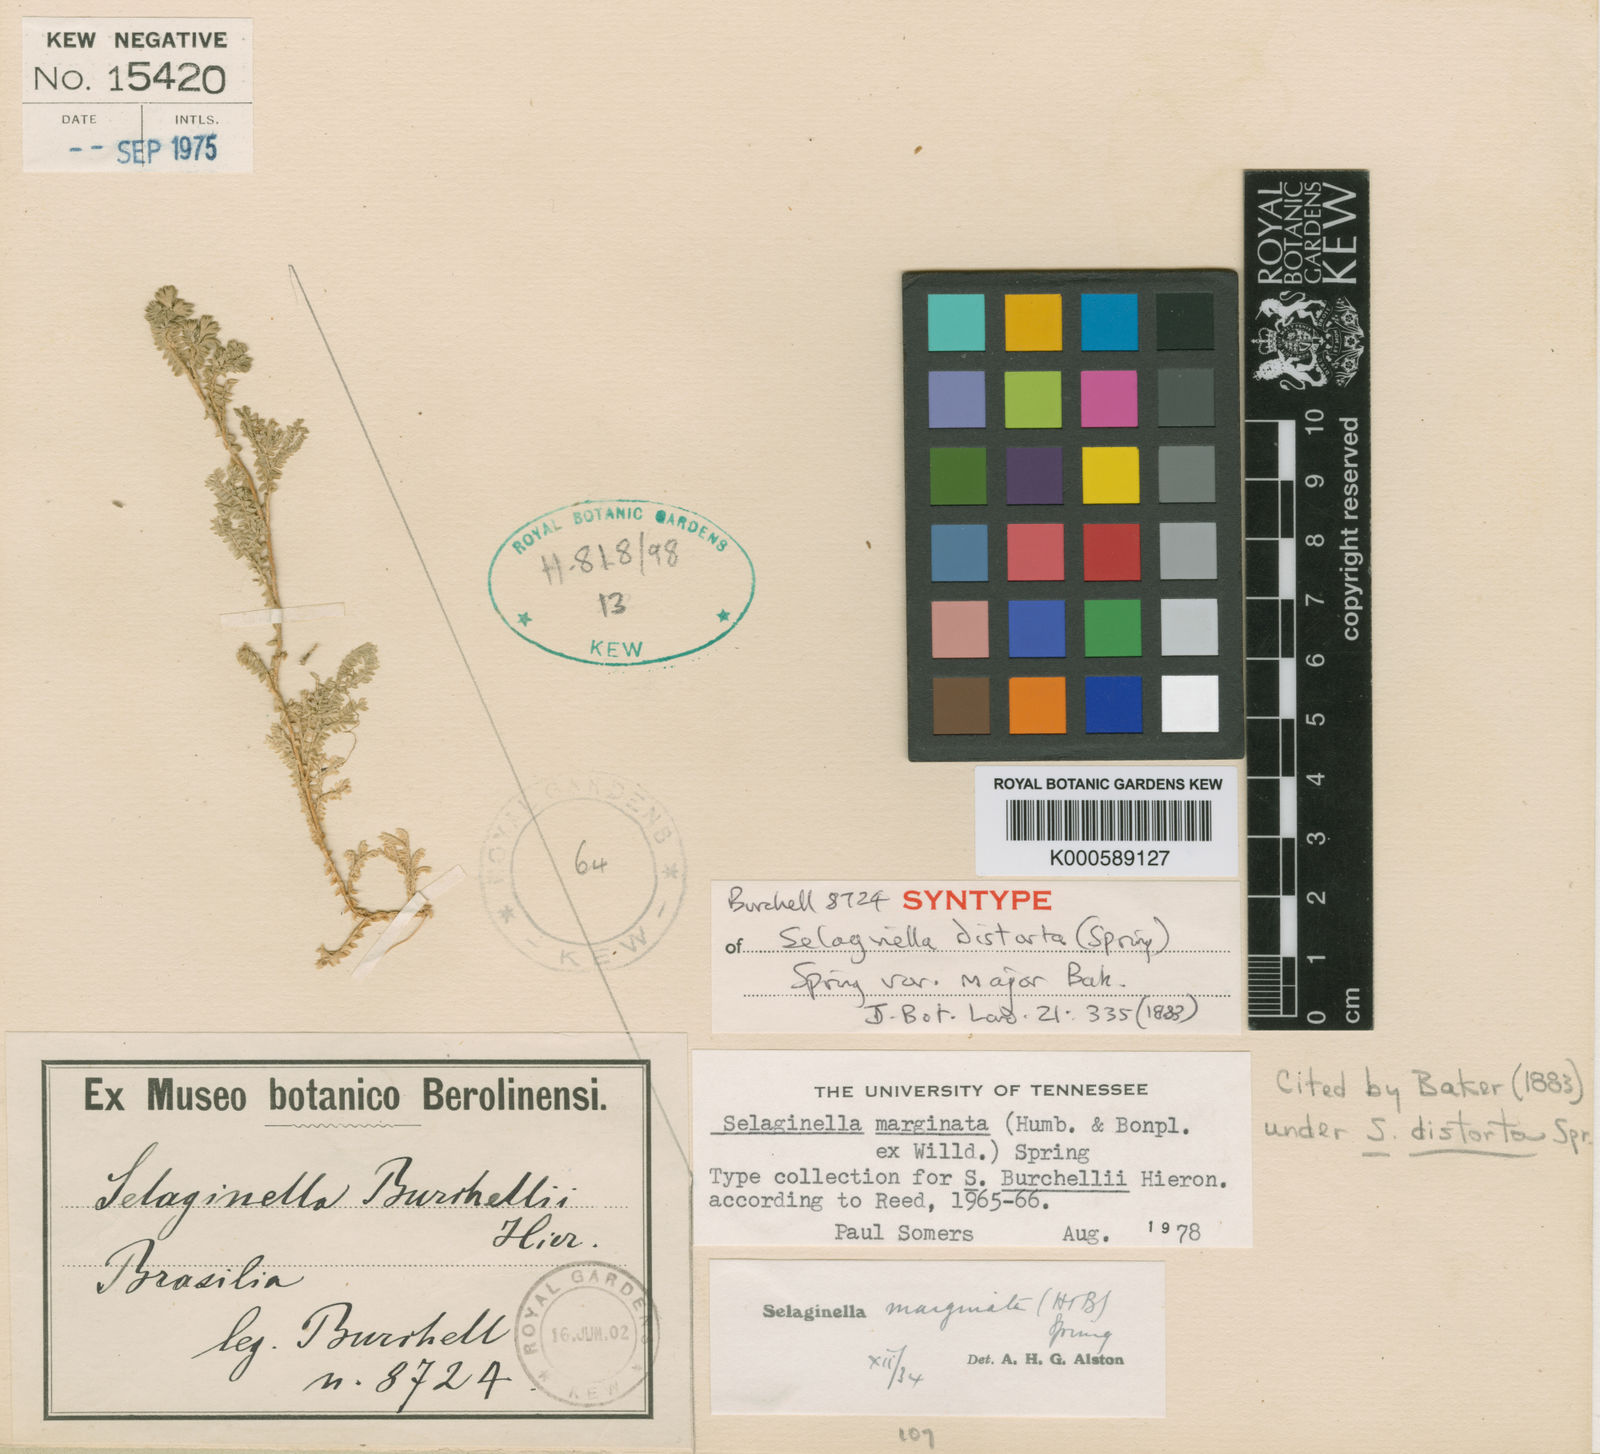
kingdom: Plantae
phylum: Tracheophyta
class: Lycopodiopsida
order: Selaginellales
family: Selaginellaceae
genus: Selaginella
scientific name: Selaginella marginata
